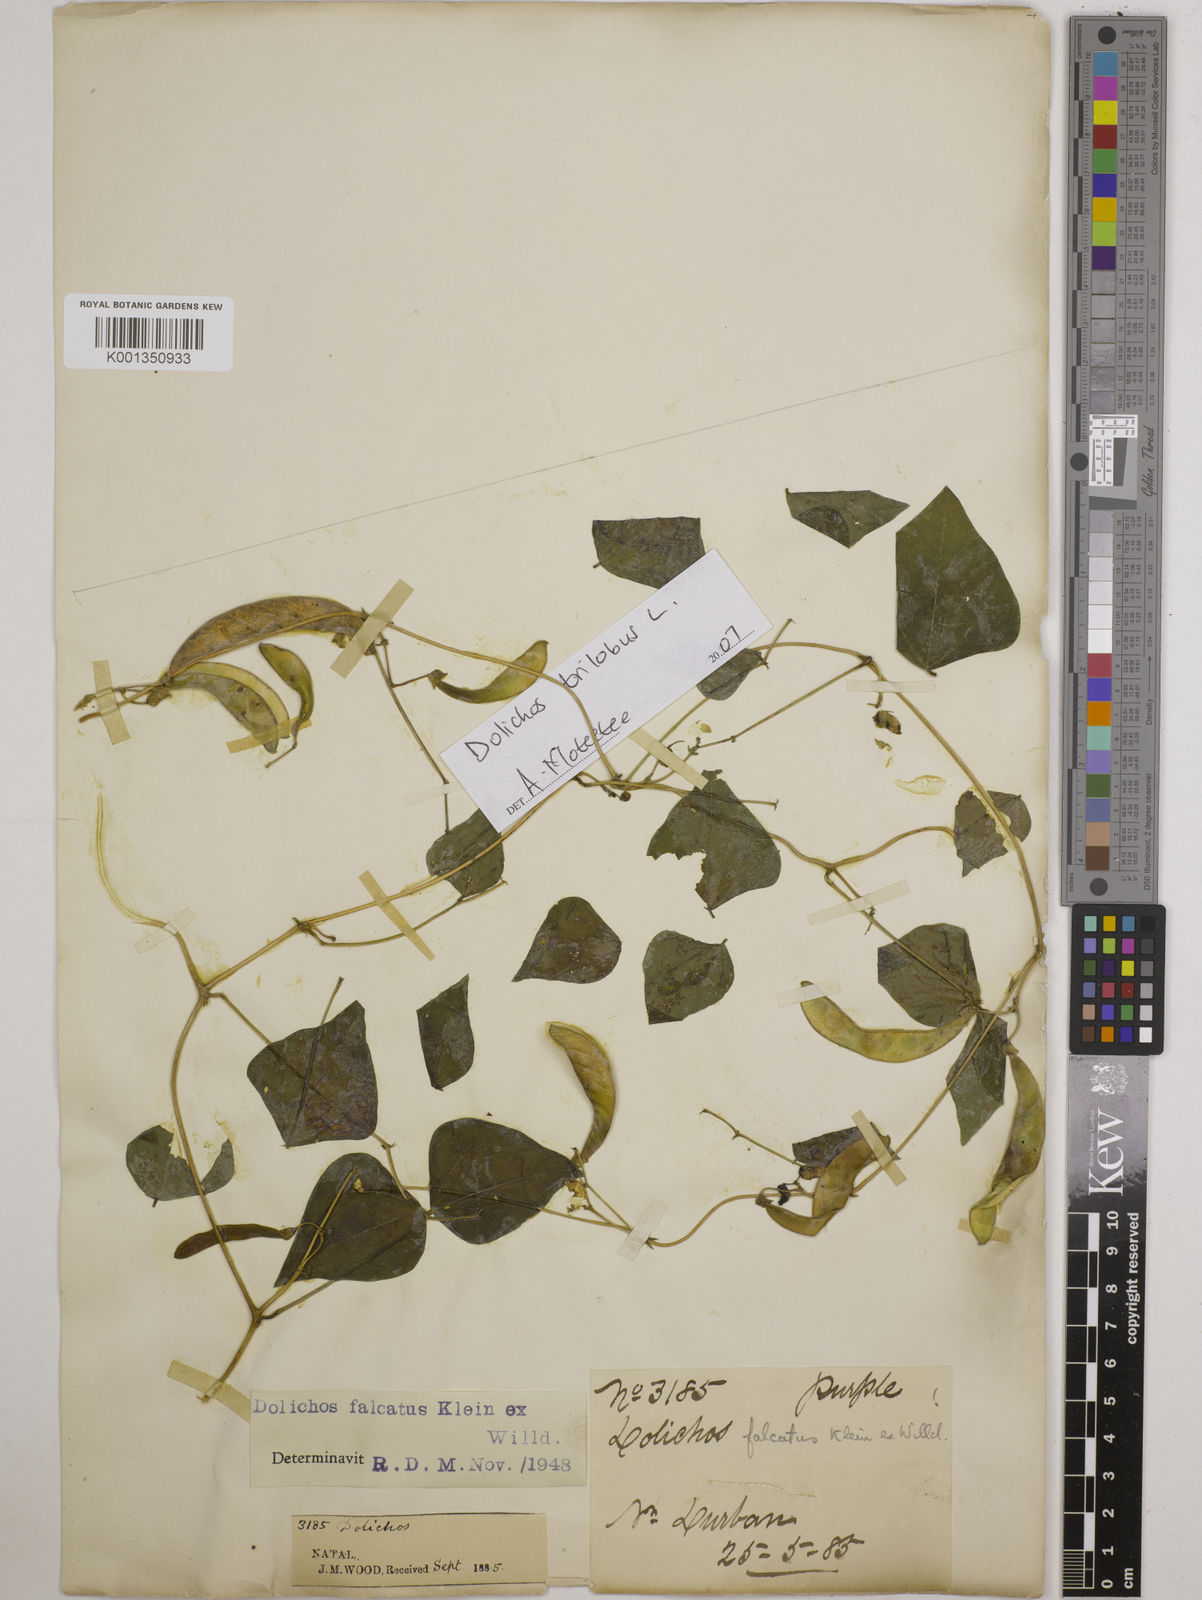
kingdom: Plantae
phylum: Tracheophyta
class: Magnoliopsida
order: Fabales
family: Fabaceae
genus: Dolichos
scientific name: Dolichos
